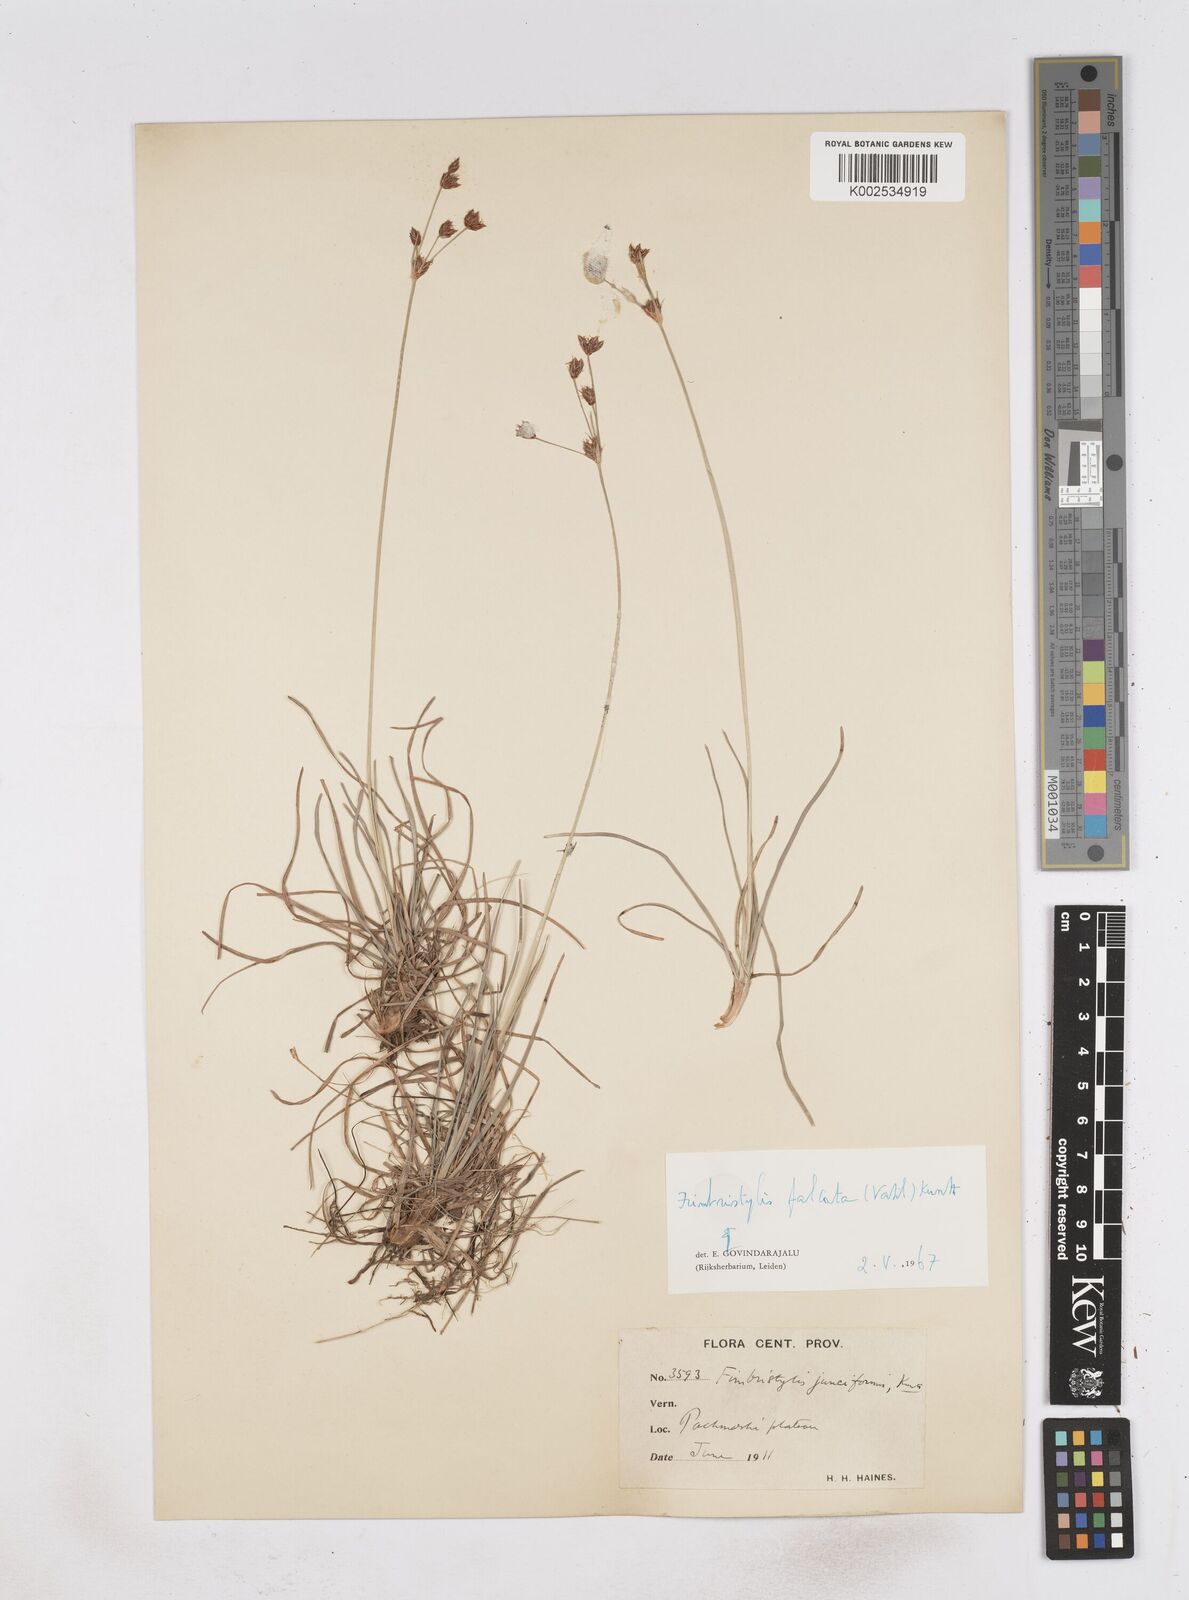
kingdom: Plantae
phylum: Tracheophyta
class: Liliopsida
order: Poales
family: Cyperaceae
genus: Fimbristylis
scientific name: Fimbristylis falcata
